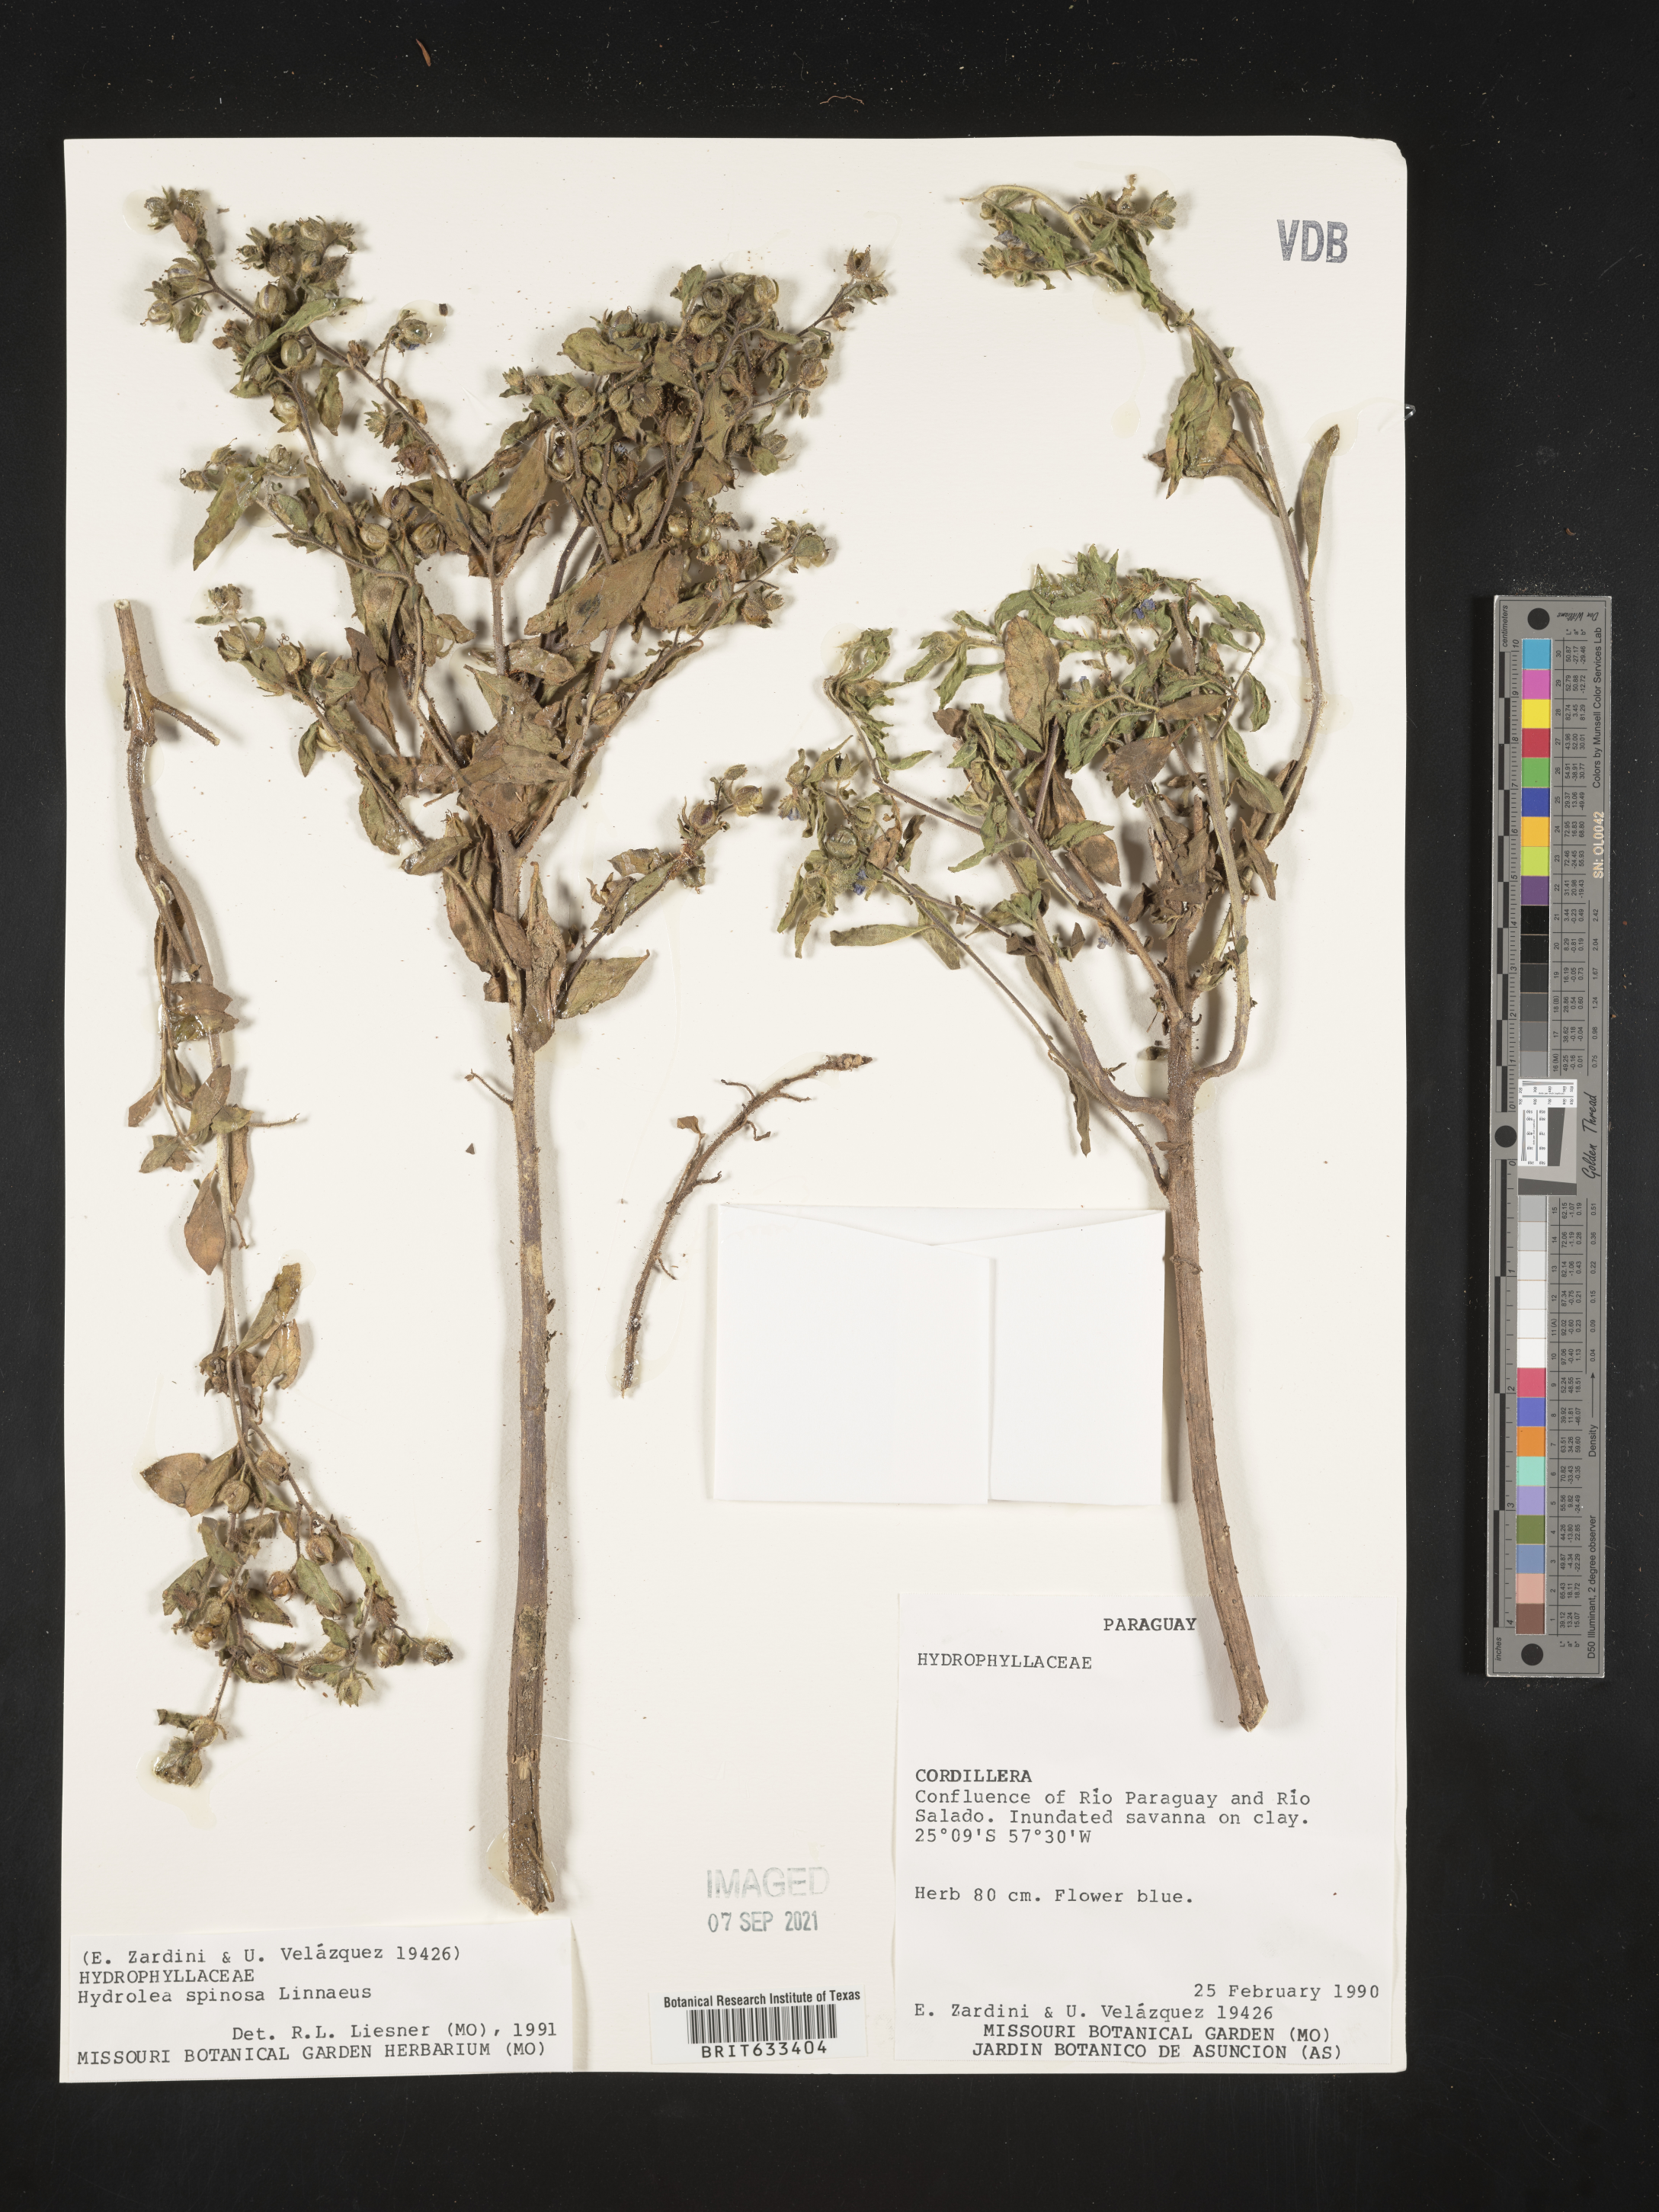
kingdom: Plantae
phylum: Tracheophyta
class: Magnoliopsida
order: Solanales
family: Hydroleaceae
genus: Hydrolea
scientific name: Hydrolea
